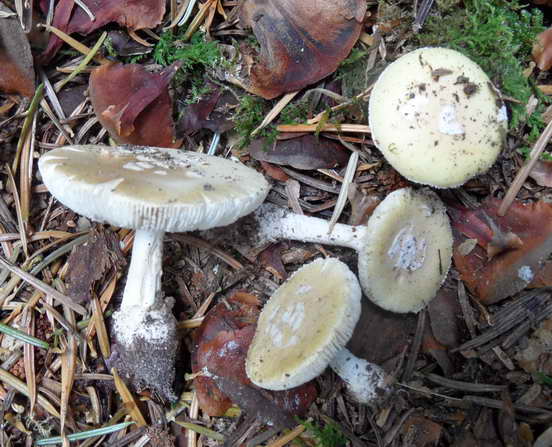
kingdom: Fungi
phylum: Basidiomycota
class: Agaricomycetes
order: Agaricales
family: Amanitaceae
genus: Amanita
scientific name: Amanita gemmata
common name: okkergul fluesvamp
